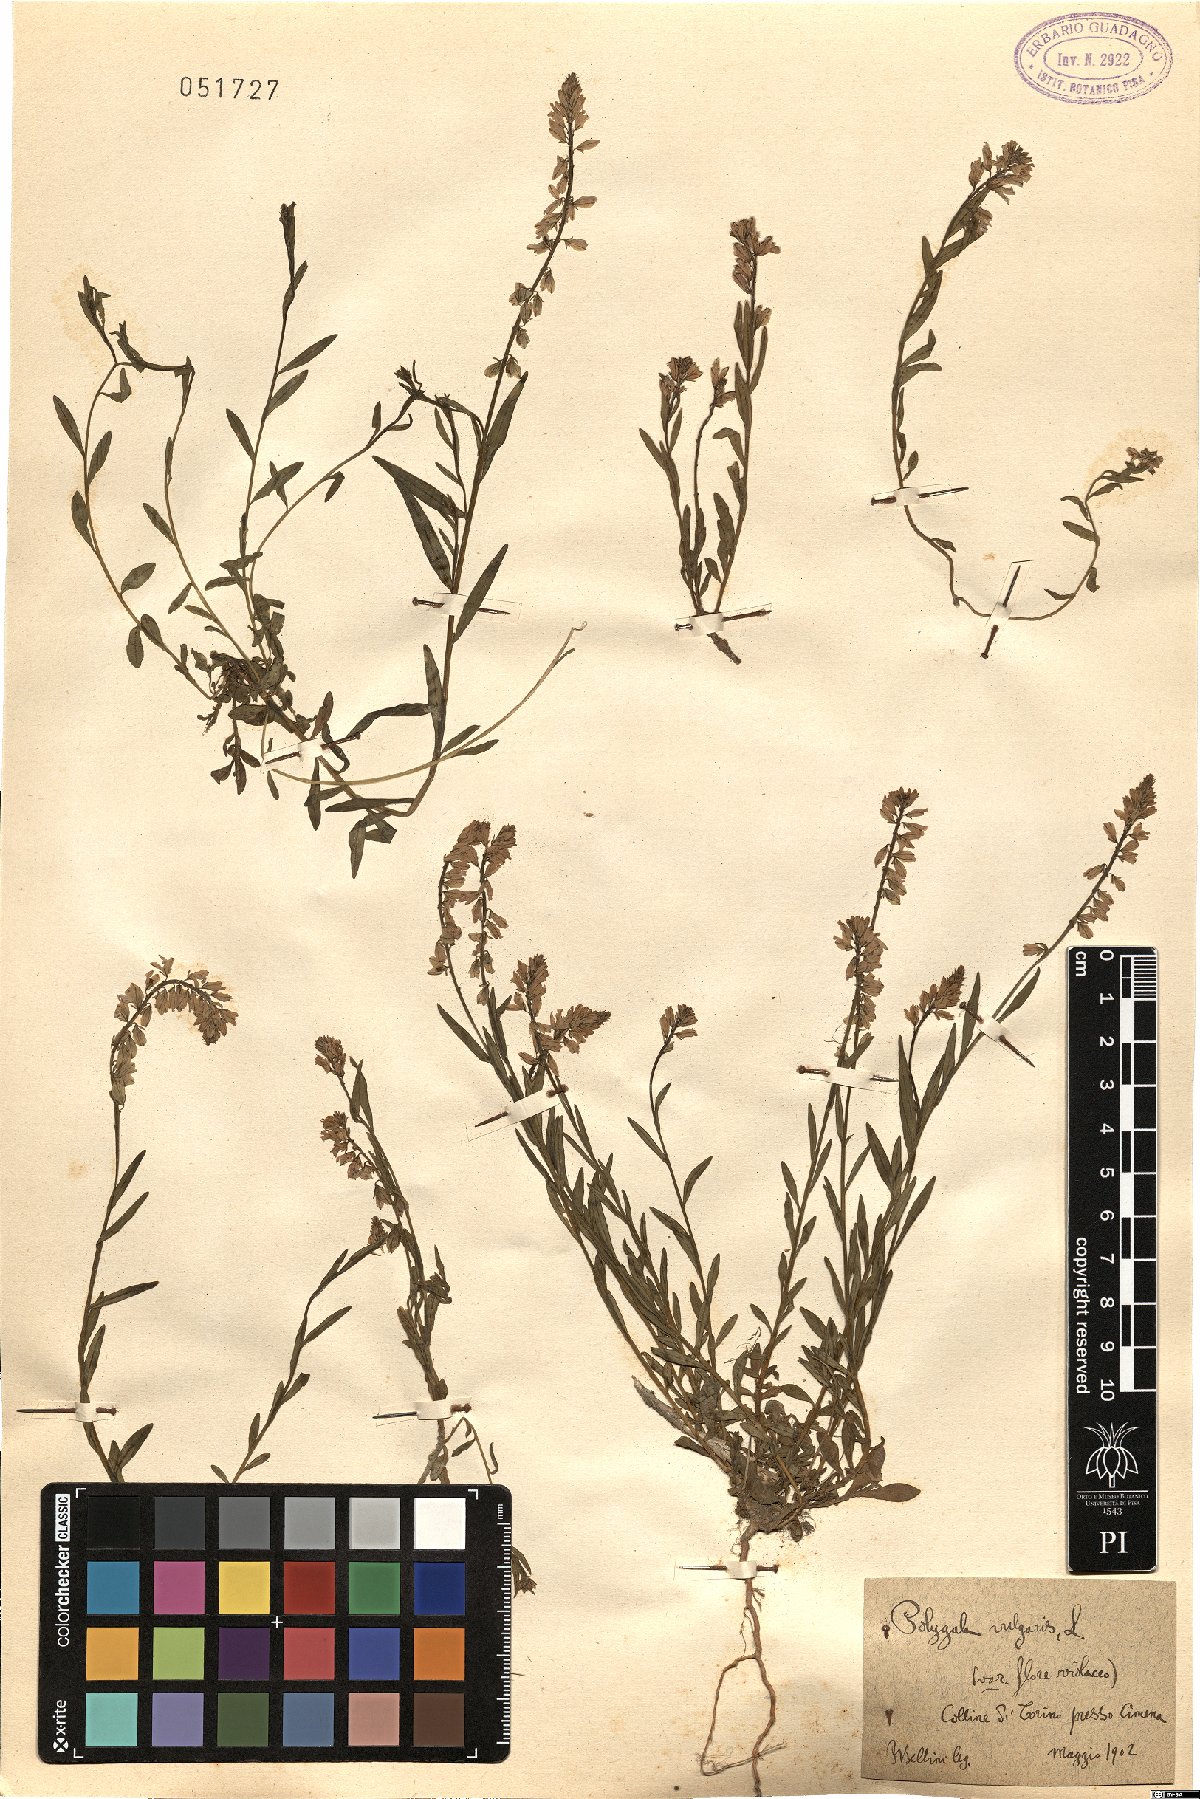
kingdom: Plantae
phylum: Tracheophyta
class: Magnoliopsida
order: Fabales
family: Polygalaceae
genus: Polygala
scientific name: Polygala vulgaris
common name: Common milkwort
